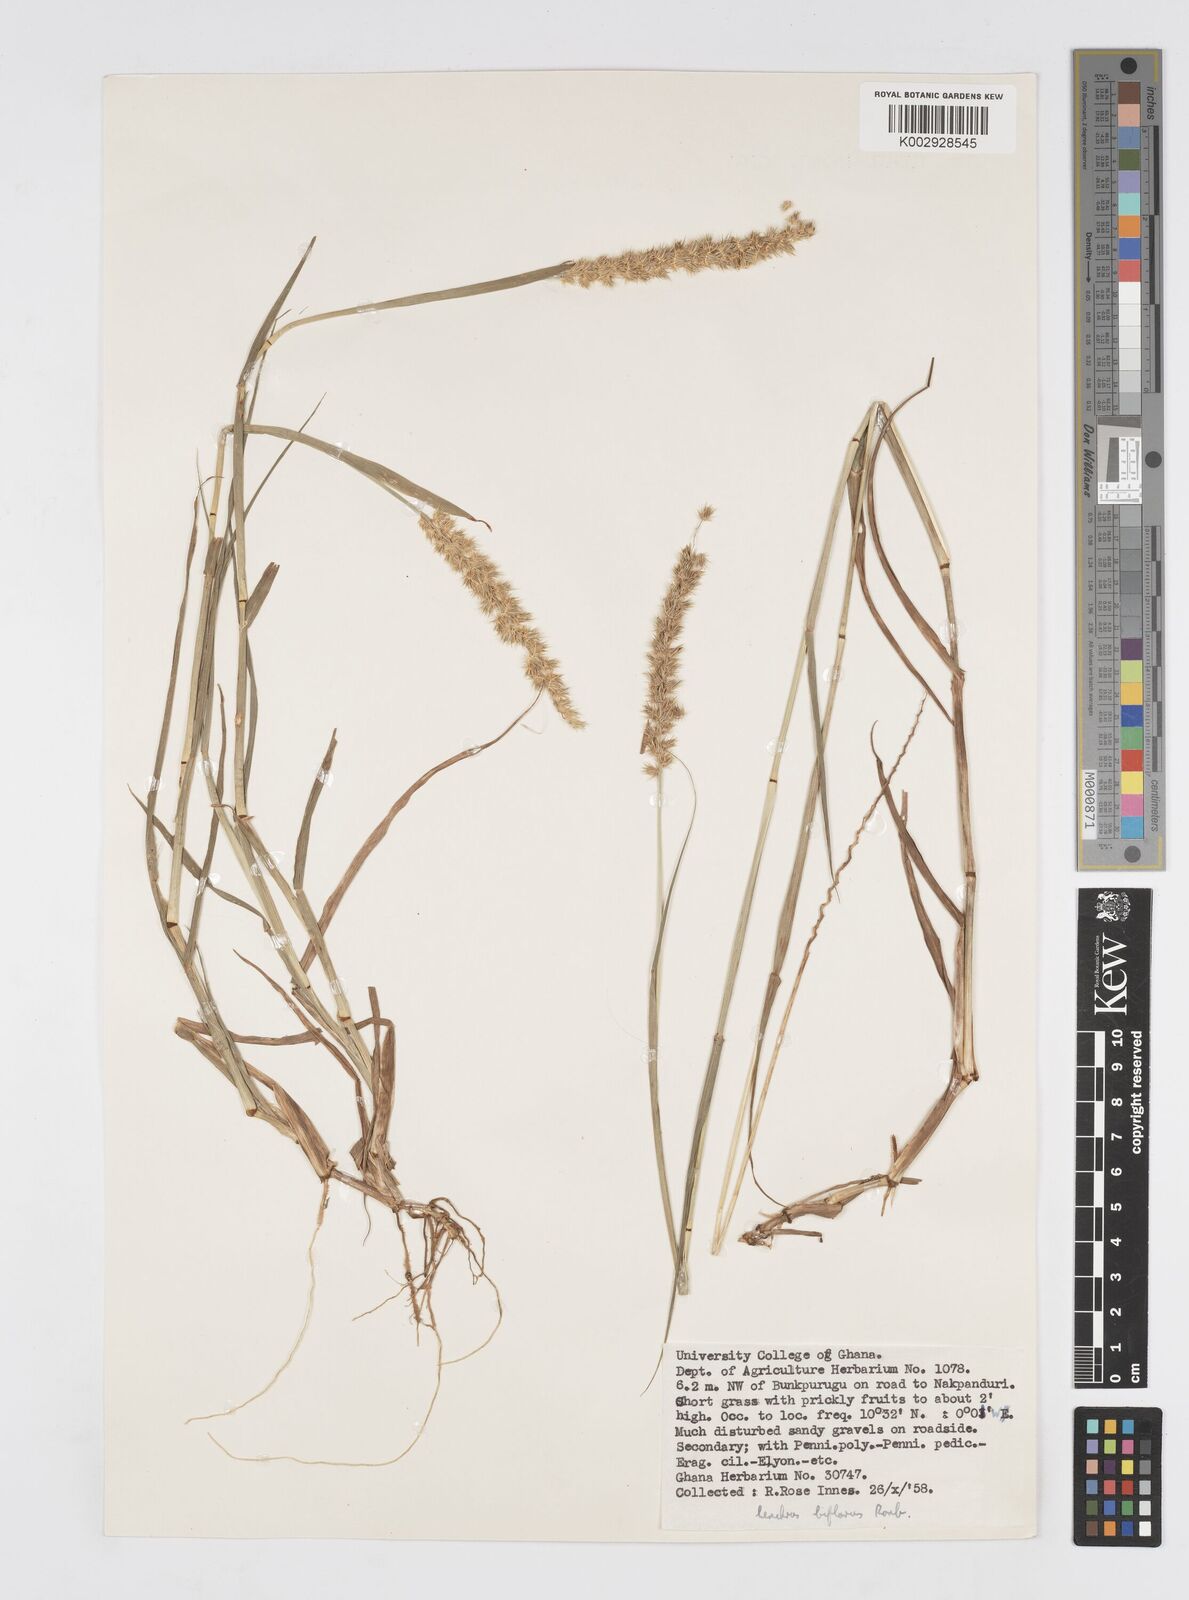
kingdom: Plantae
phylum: Tracheophyta
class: Liliopsida
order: Poales
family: Poaceae
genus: Cenchrus
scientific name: Cenchrus biflorus
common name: Indian sandbur
